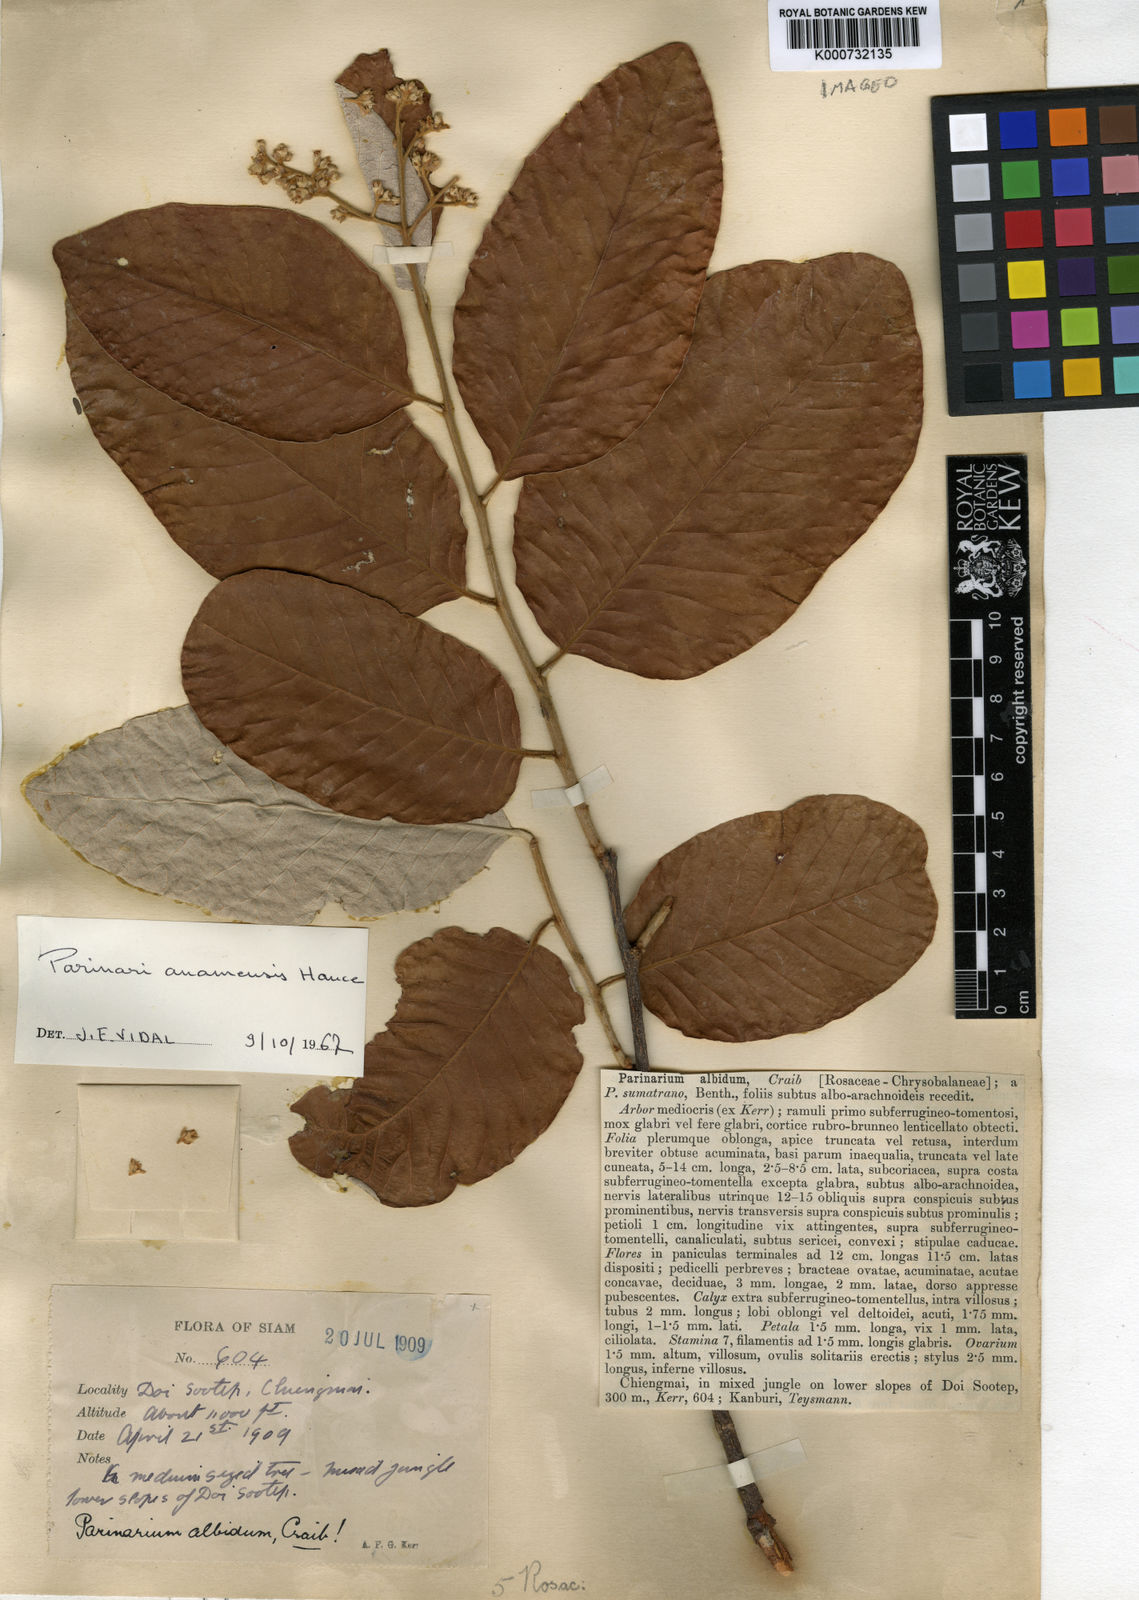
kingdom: Plantae
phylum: Tracheophyta
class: Magnoliopsida
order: Malpighiales
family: Chrysobalanaceae
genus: Parinari
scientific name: Parinari anamensis
